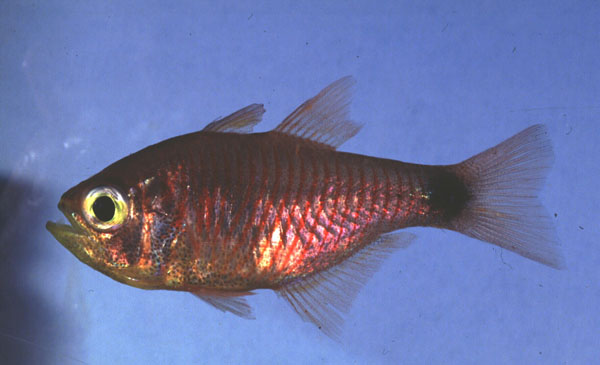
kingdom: Animalia
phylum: Chordata
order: Perciformes
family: Apogonidae
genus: Taeniamia
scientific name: Taeniamia fucata
